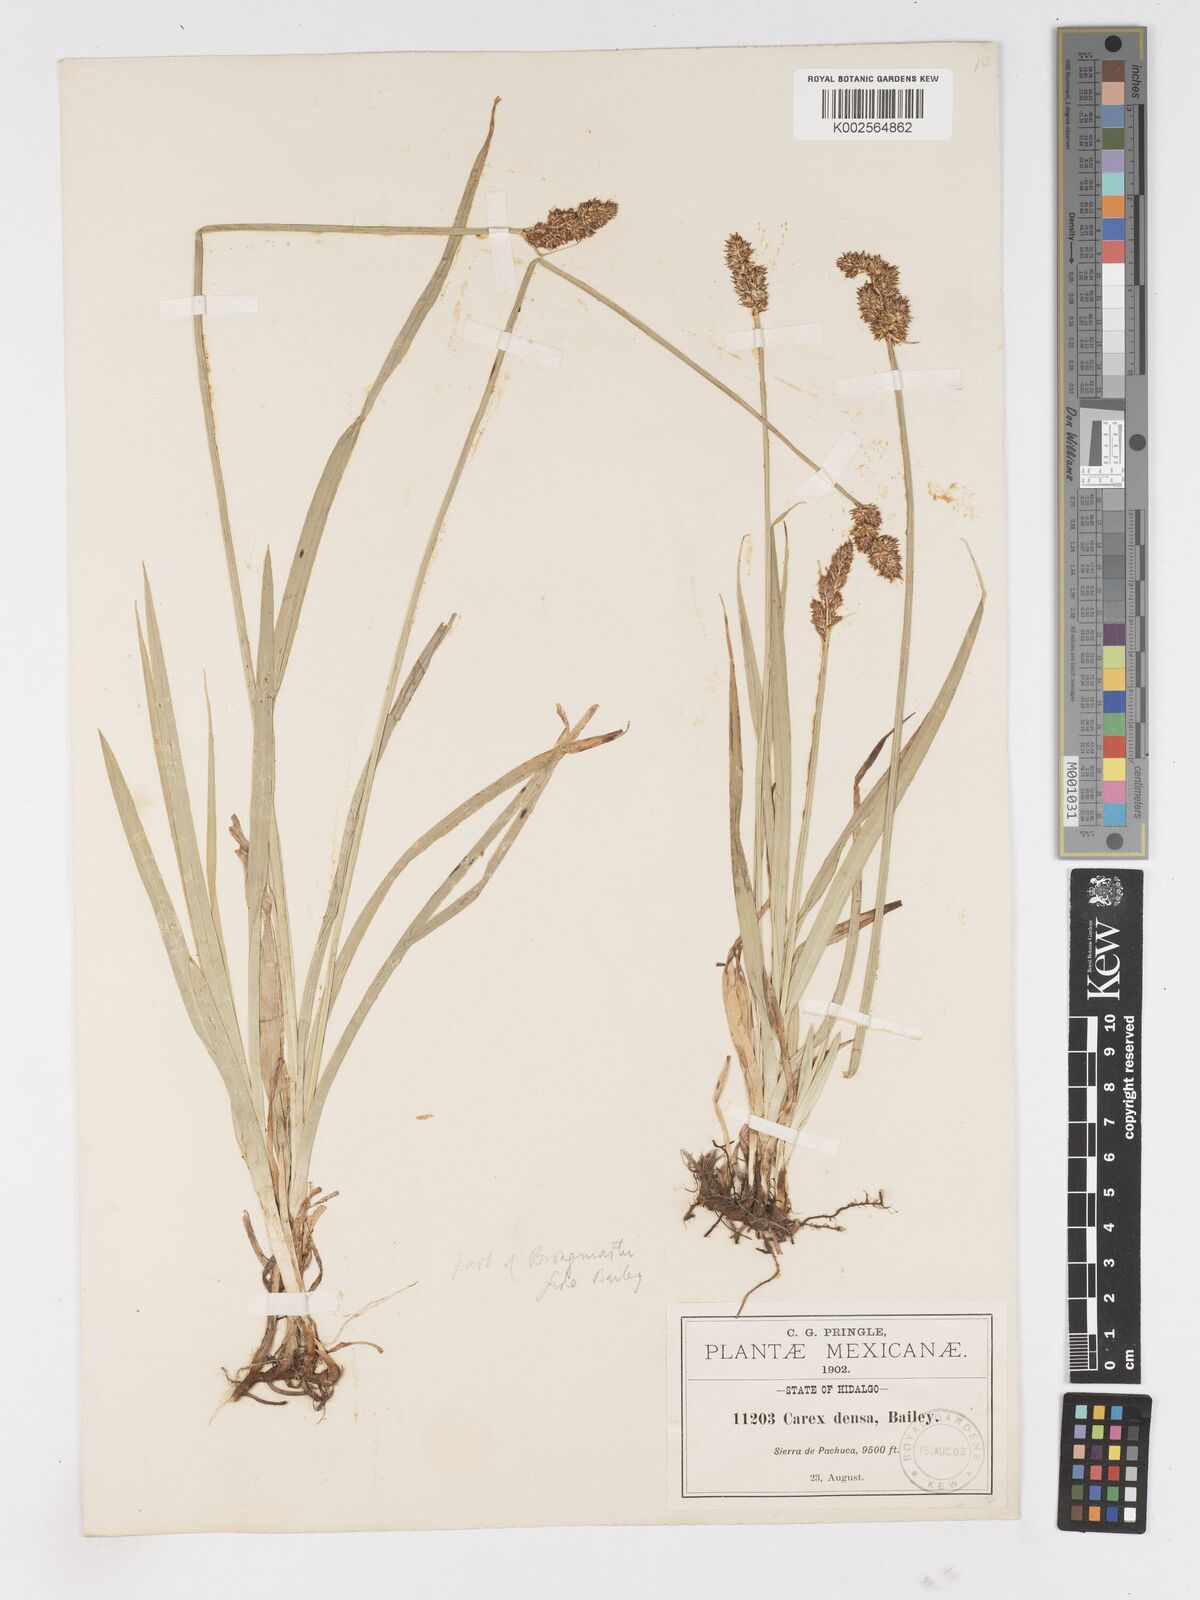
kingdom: Plantae
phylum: Tracheophyta
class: Liliopsida
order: Poales
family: Cyperaceae
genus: Carex
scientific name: Carex densa
